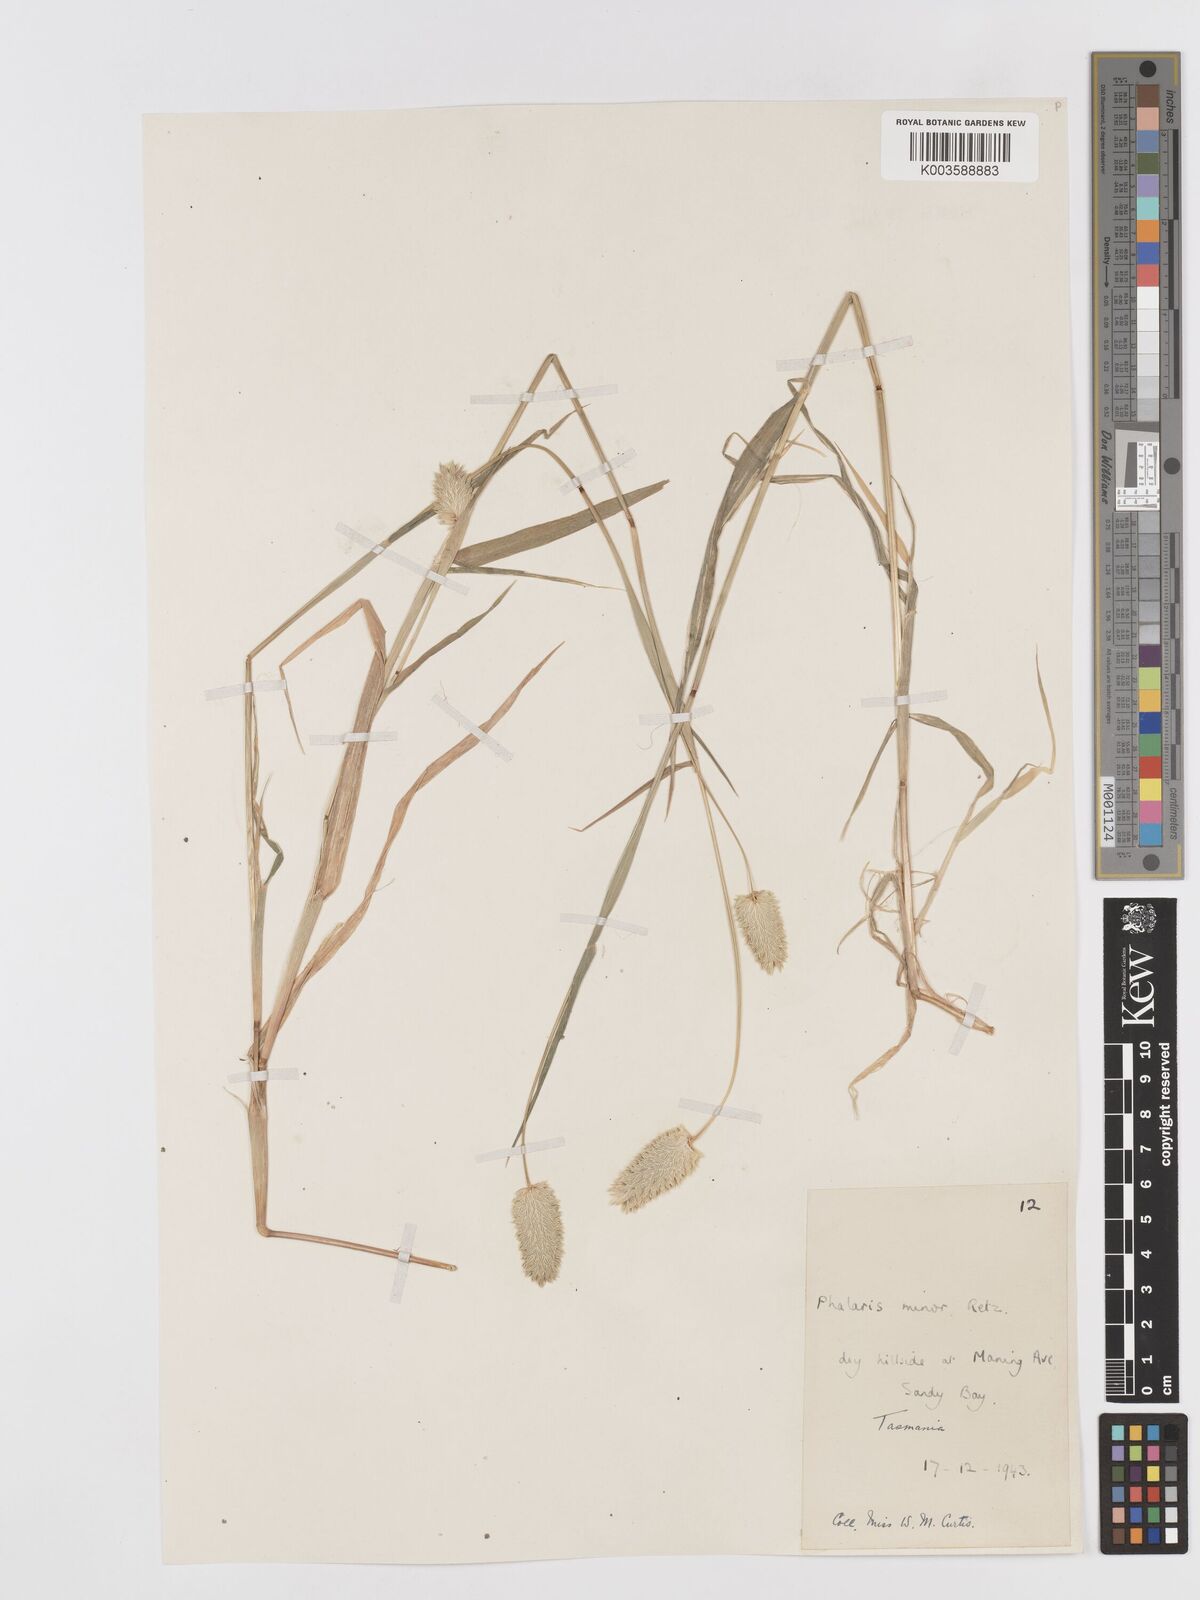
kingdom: Plantae
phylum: Tracheophyta
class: Liliopsida
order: Poales
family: Poaceae
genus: Phalaris
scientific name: Phalaris minor
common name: Littleseed canarygrass
